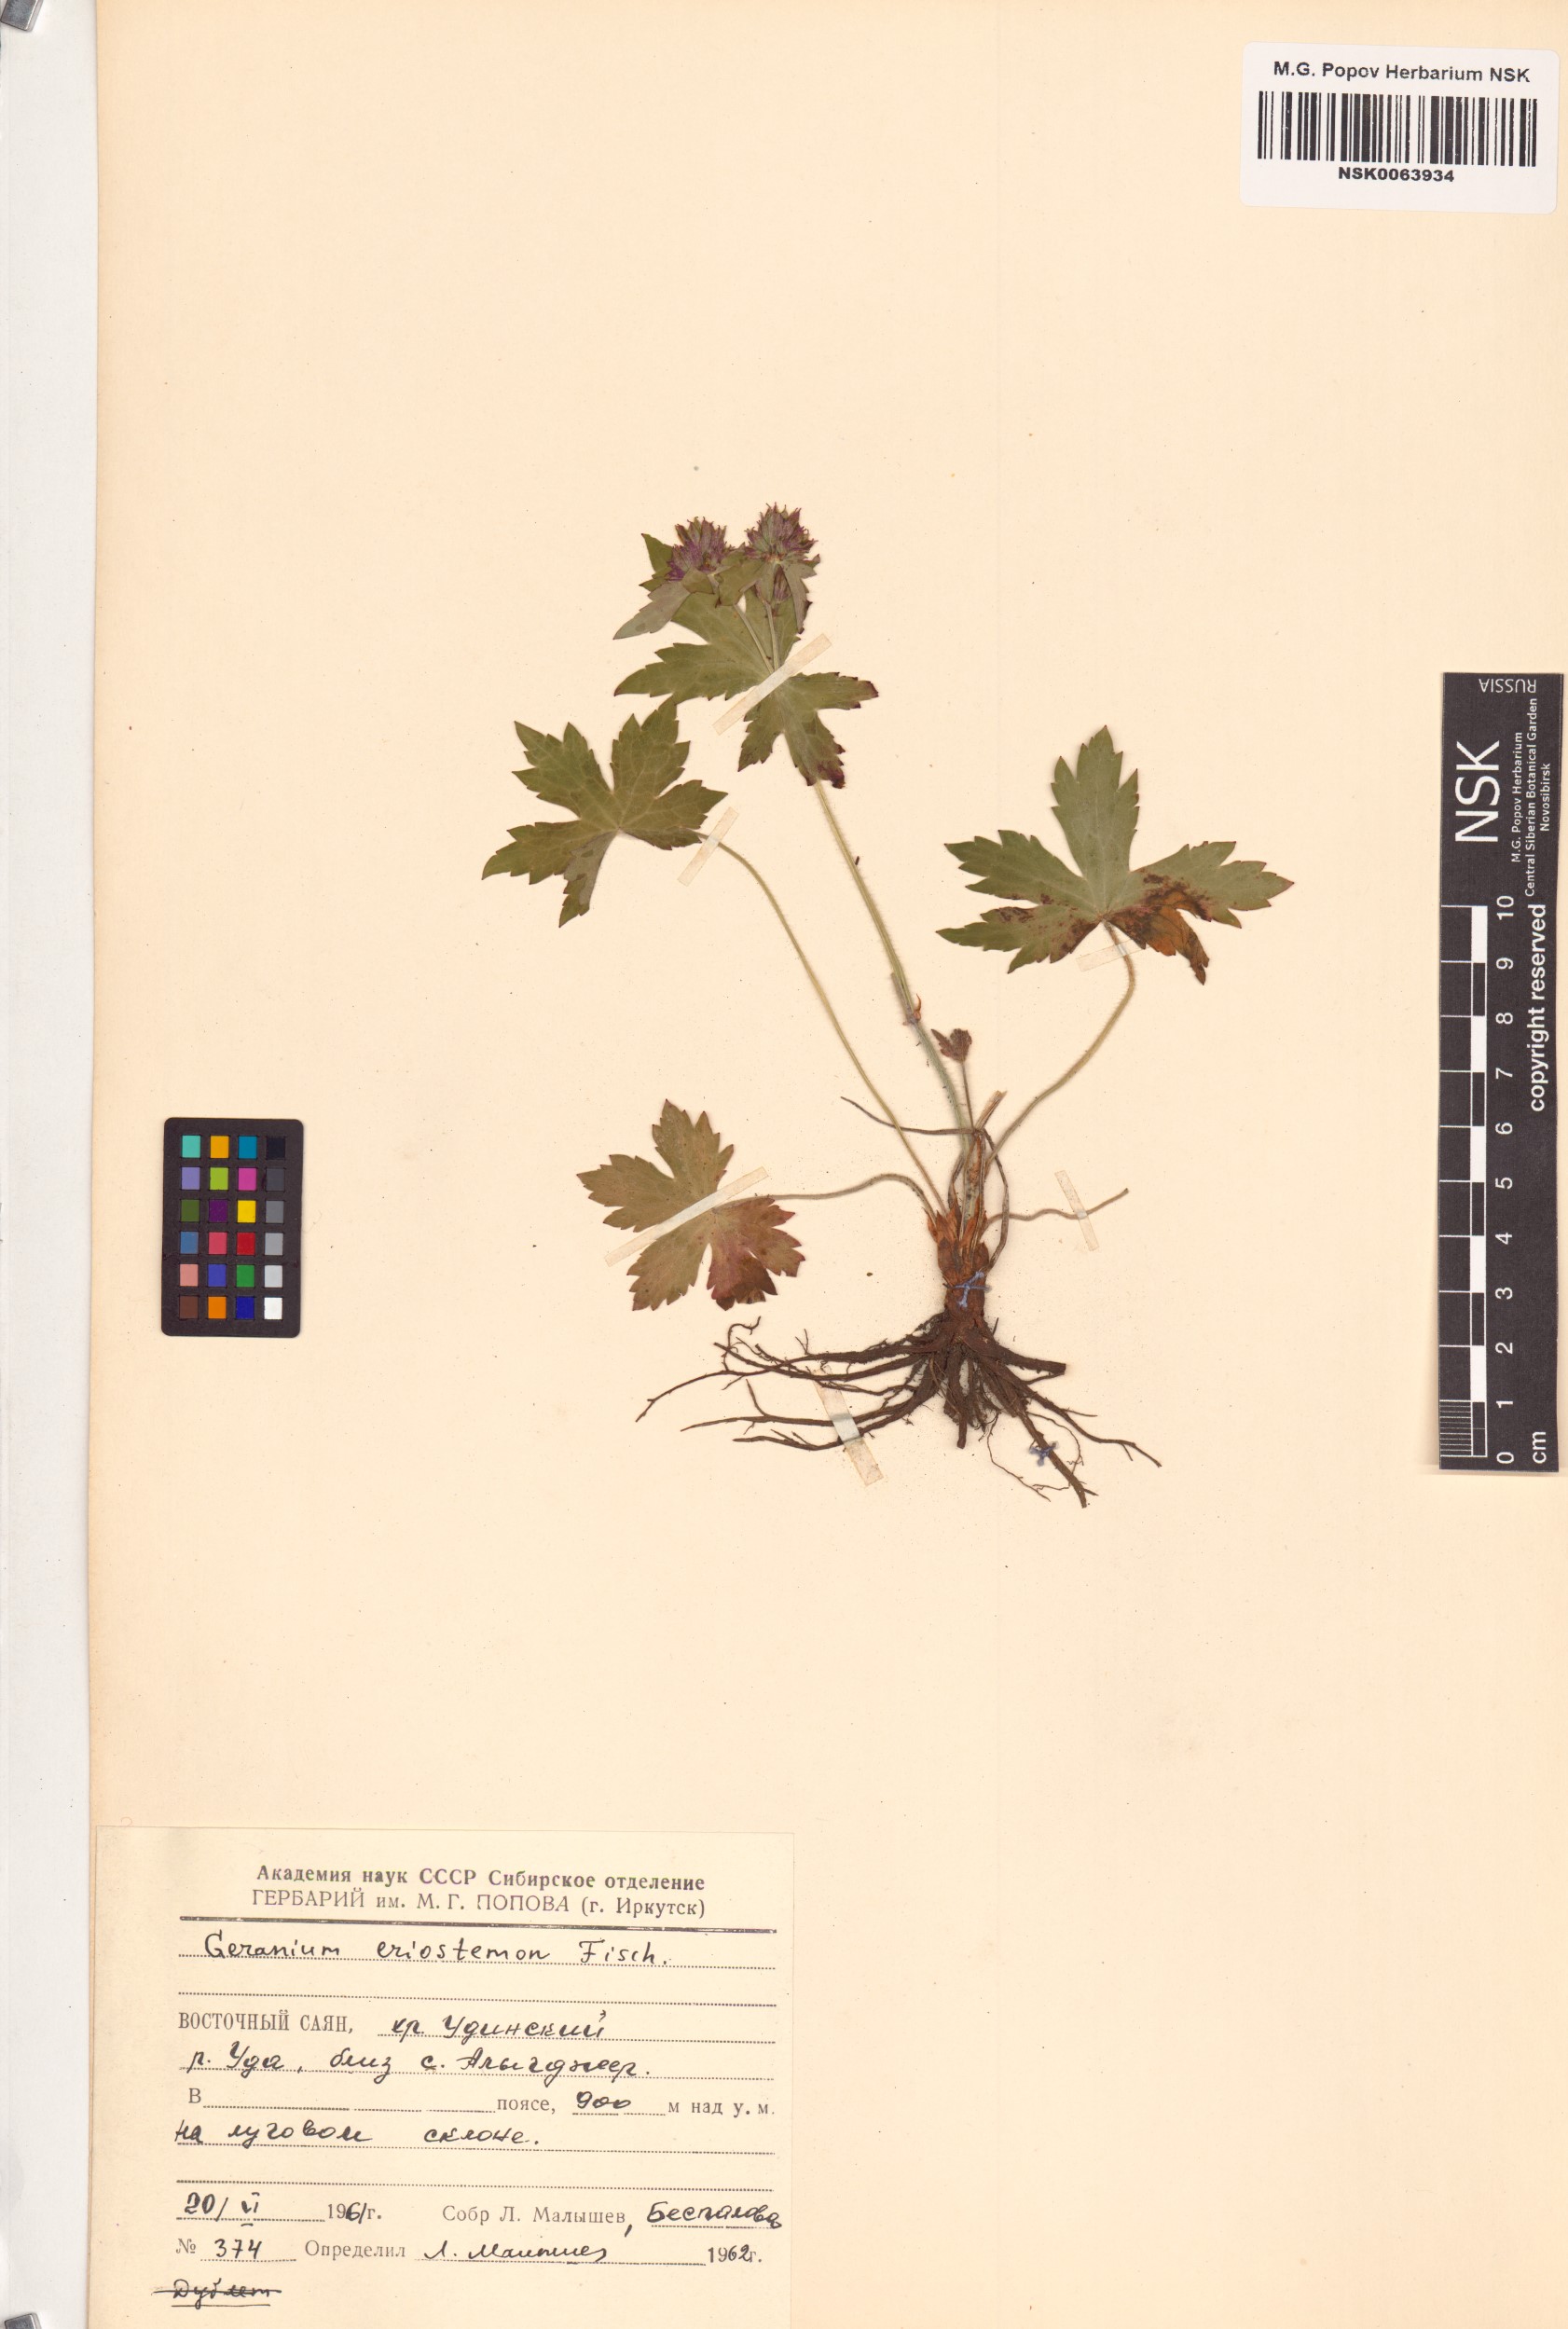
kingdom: Plantae
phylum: Tracheophyta
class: Magnoliopsida
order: Geraniales
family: Geraniaceae
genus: Geranium
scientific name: Geranium platyanthum
